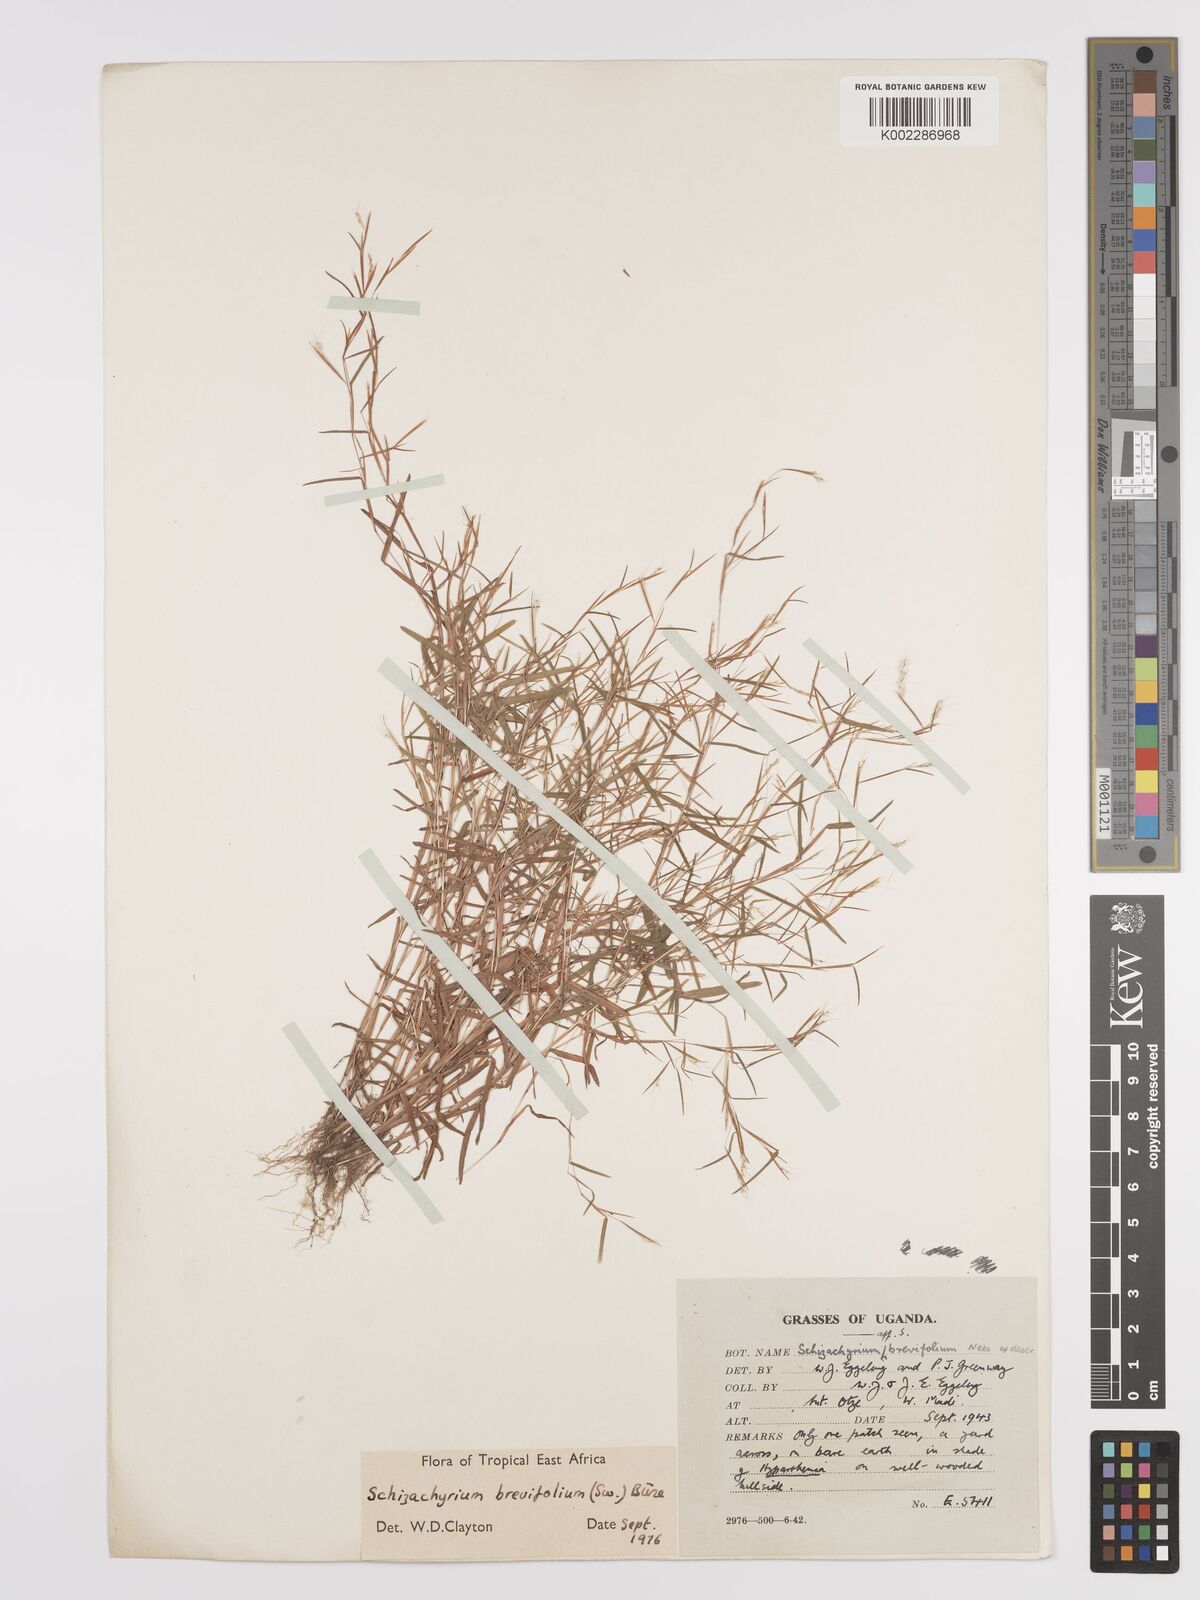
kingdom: Plantae
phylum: Tracheophyta
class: Liliopsida
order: Poales
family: Poaceae
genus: Schizachyrium
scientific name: Schizachyrium brevifolium
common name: Serillo dulce
